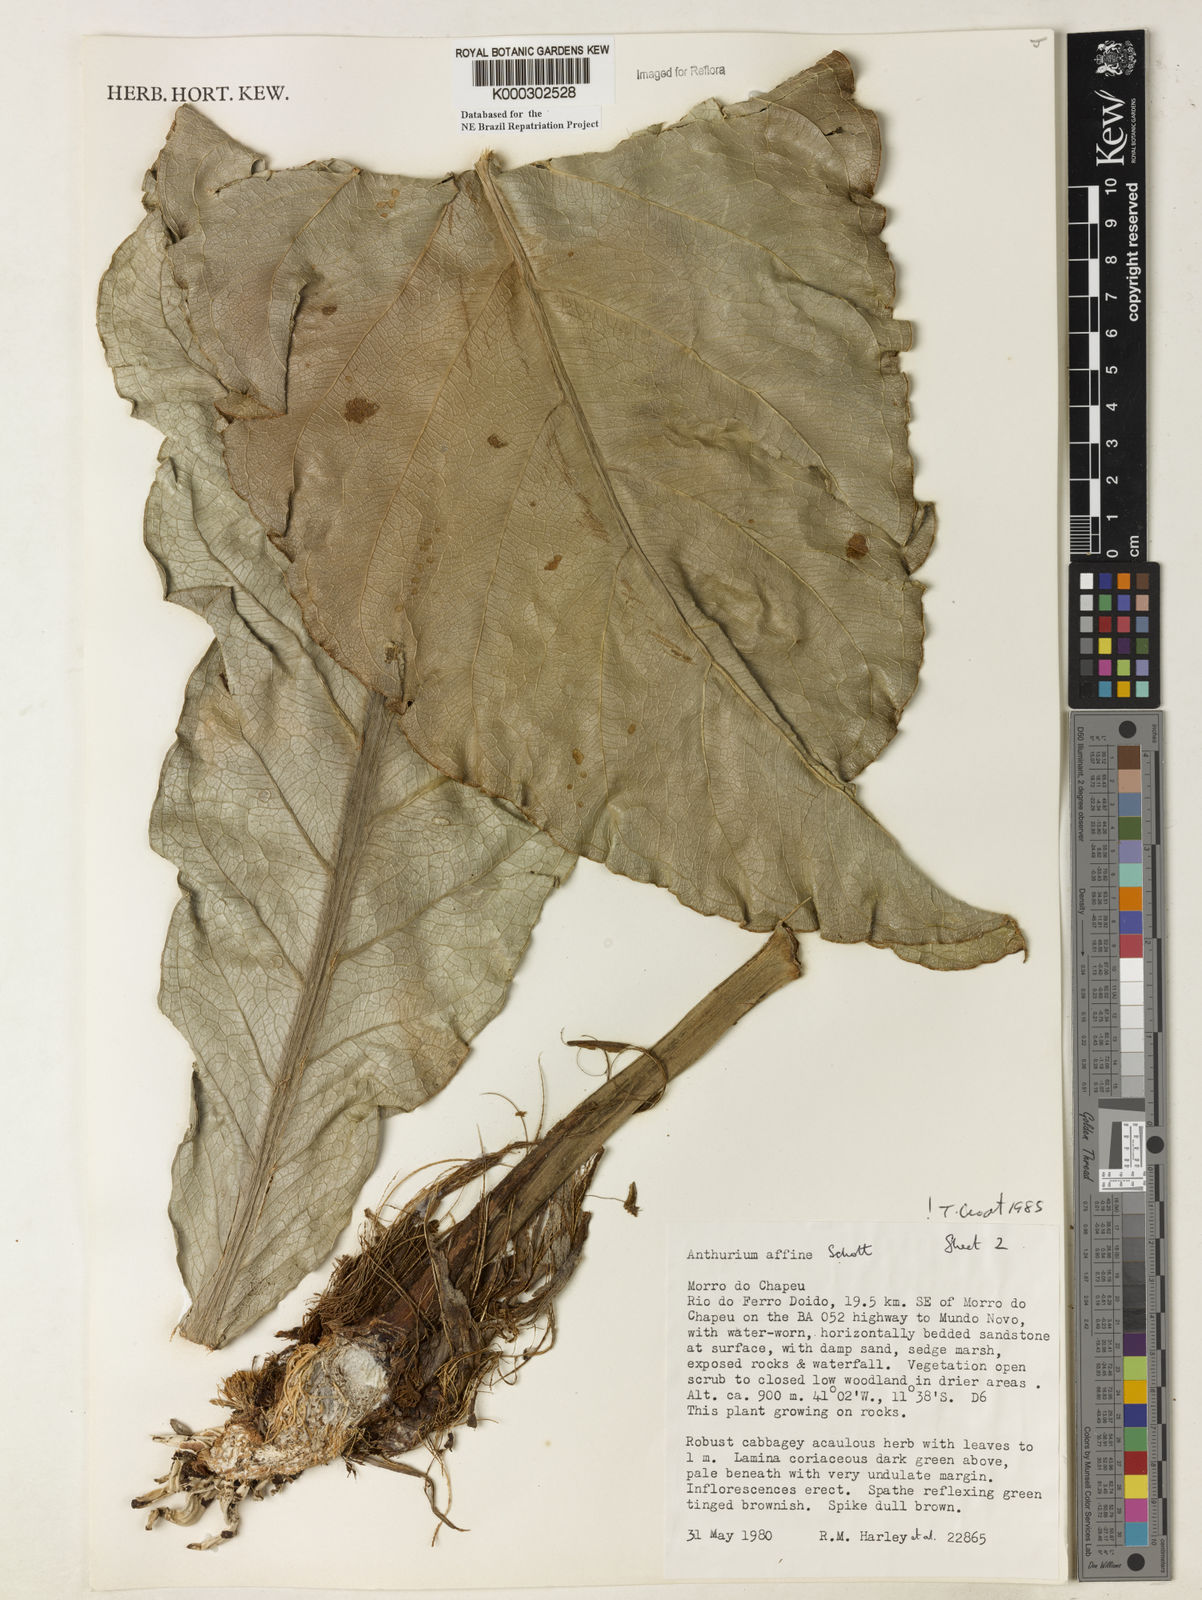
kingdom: Plantae
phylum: Tracheophyta
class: Liliopsida
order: Alismatales
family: Araceae
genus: Anthurium
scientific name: Anthurium affine
